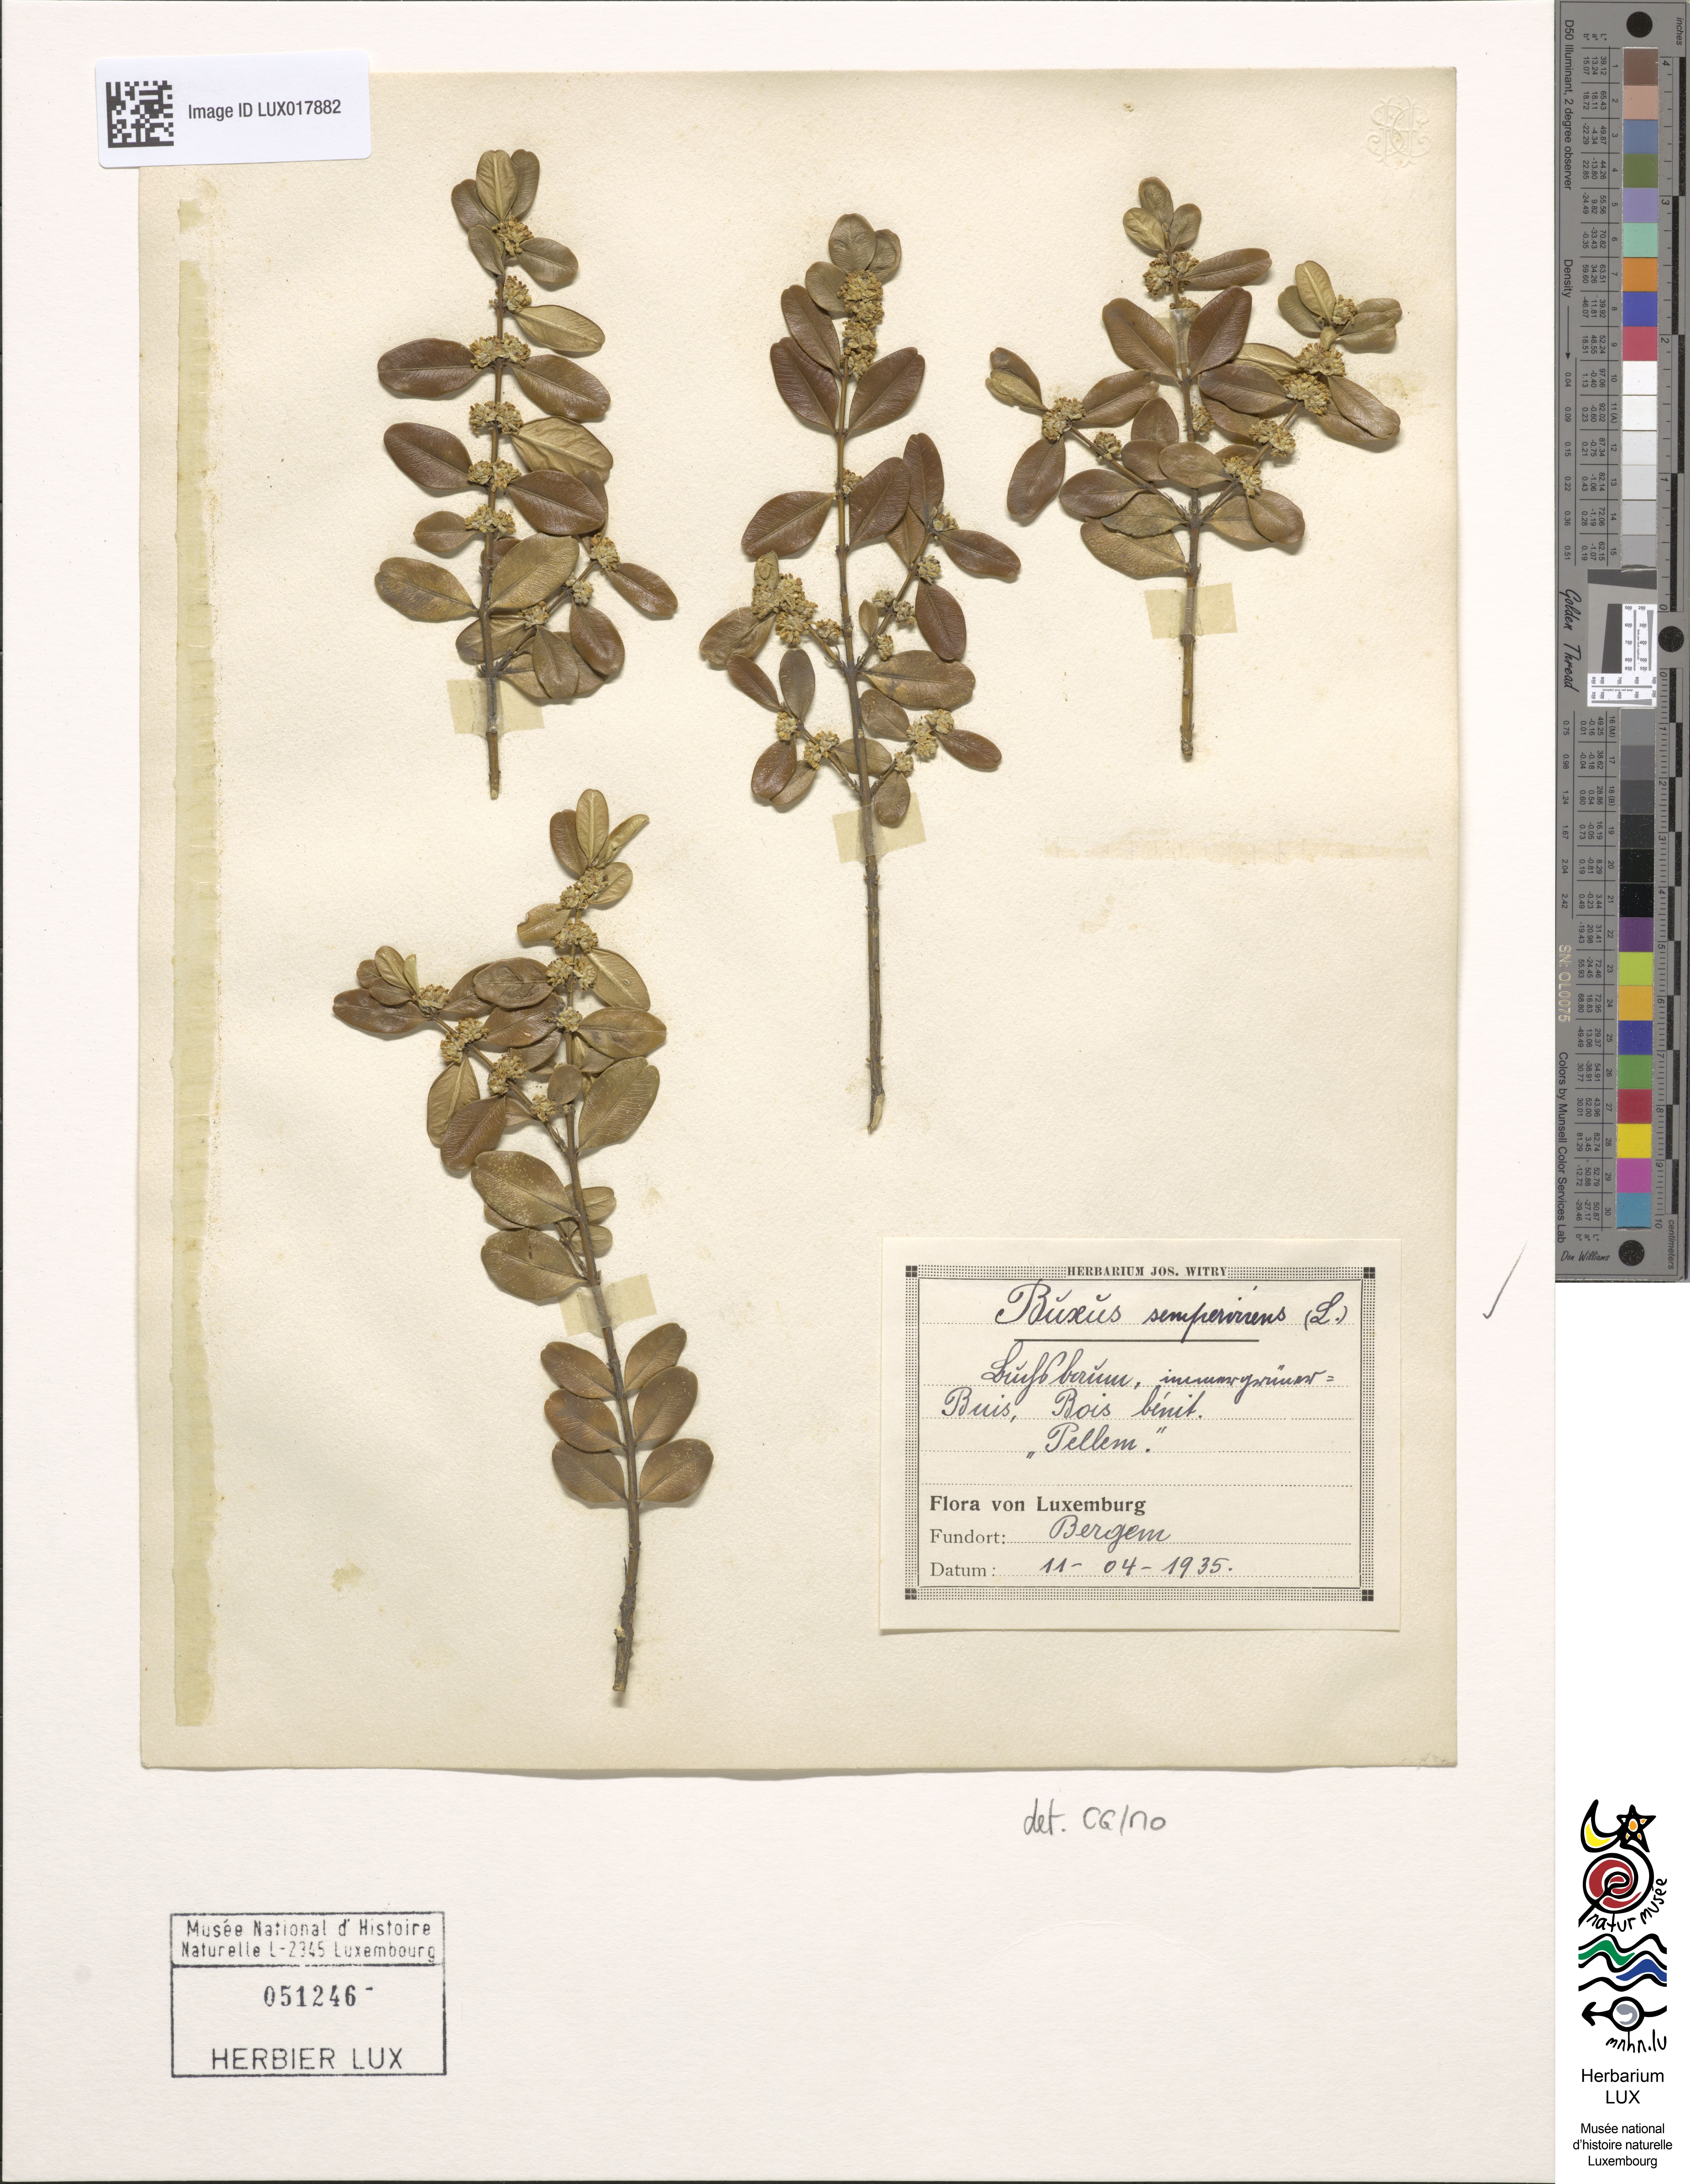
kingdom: Plantae
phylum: Tracheophyta
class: Magnoliopsida
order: Buxales
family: Buxaceae
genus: Buxus
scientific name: Buxus sempervirens
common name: Box
